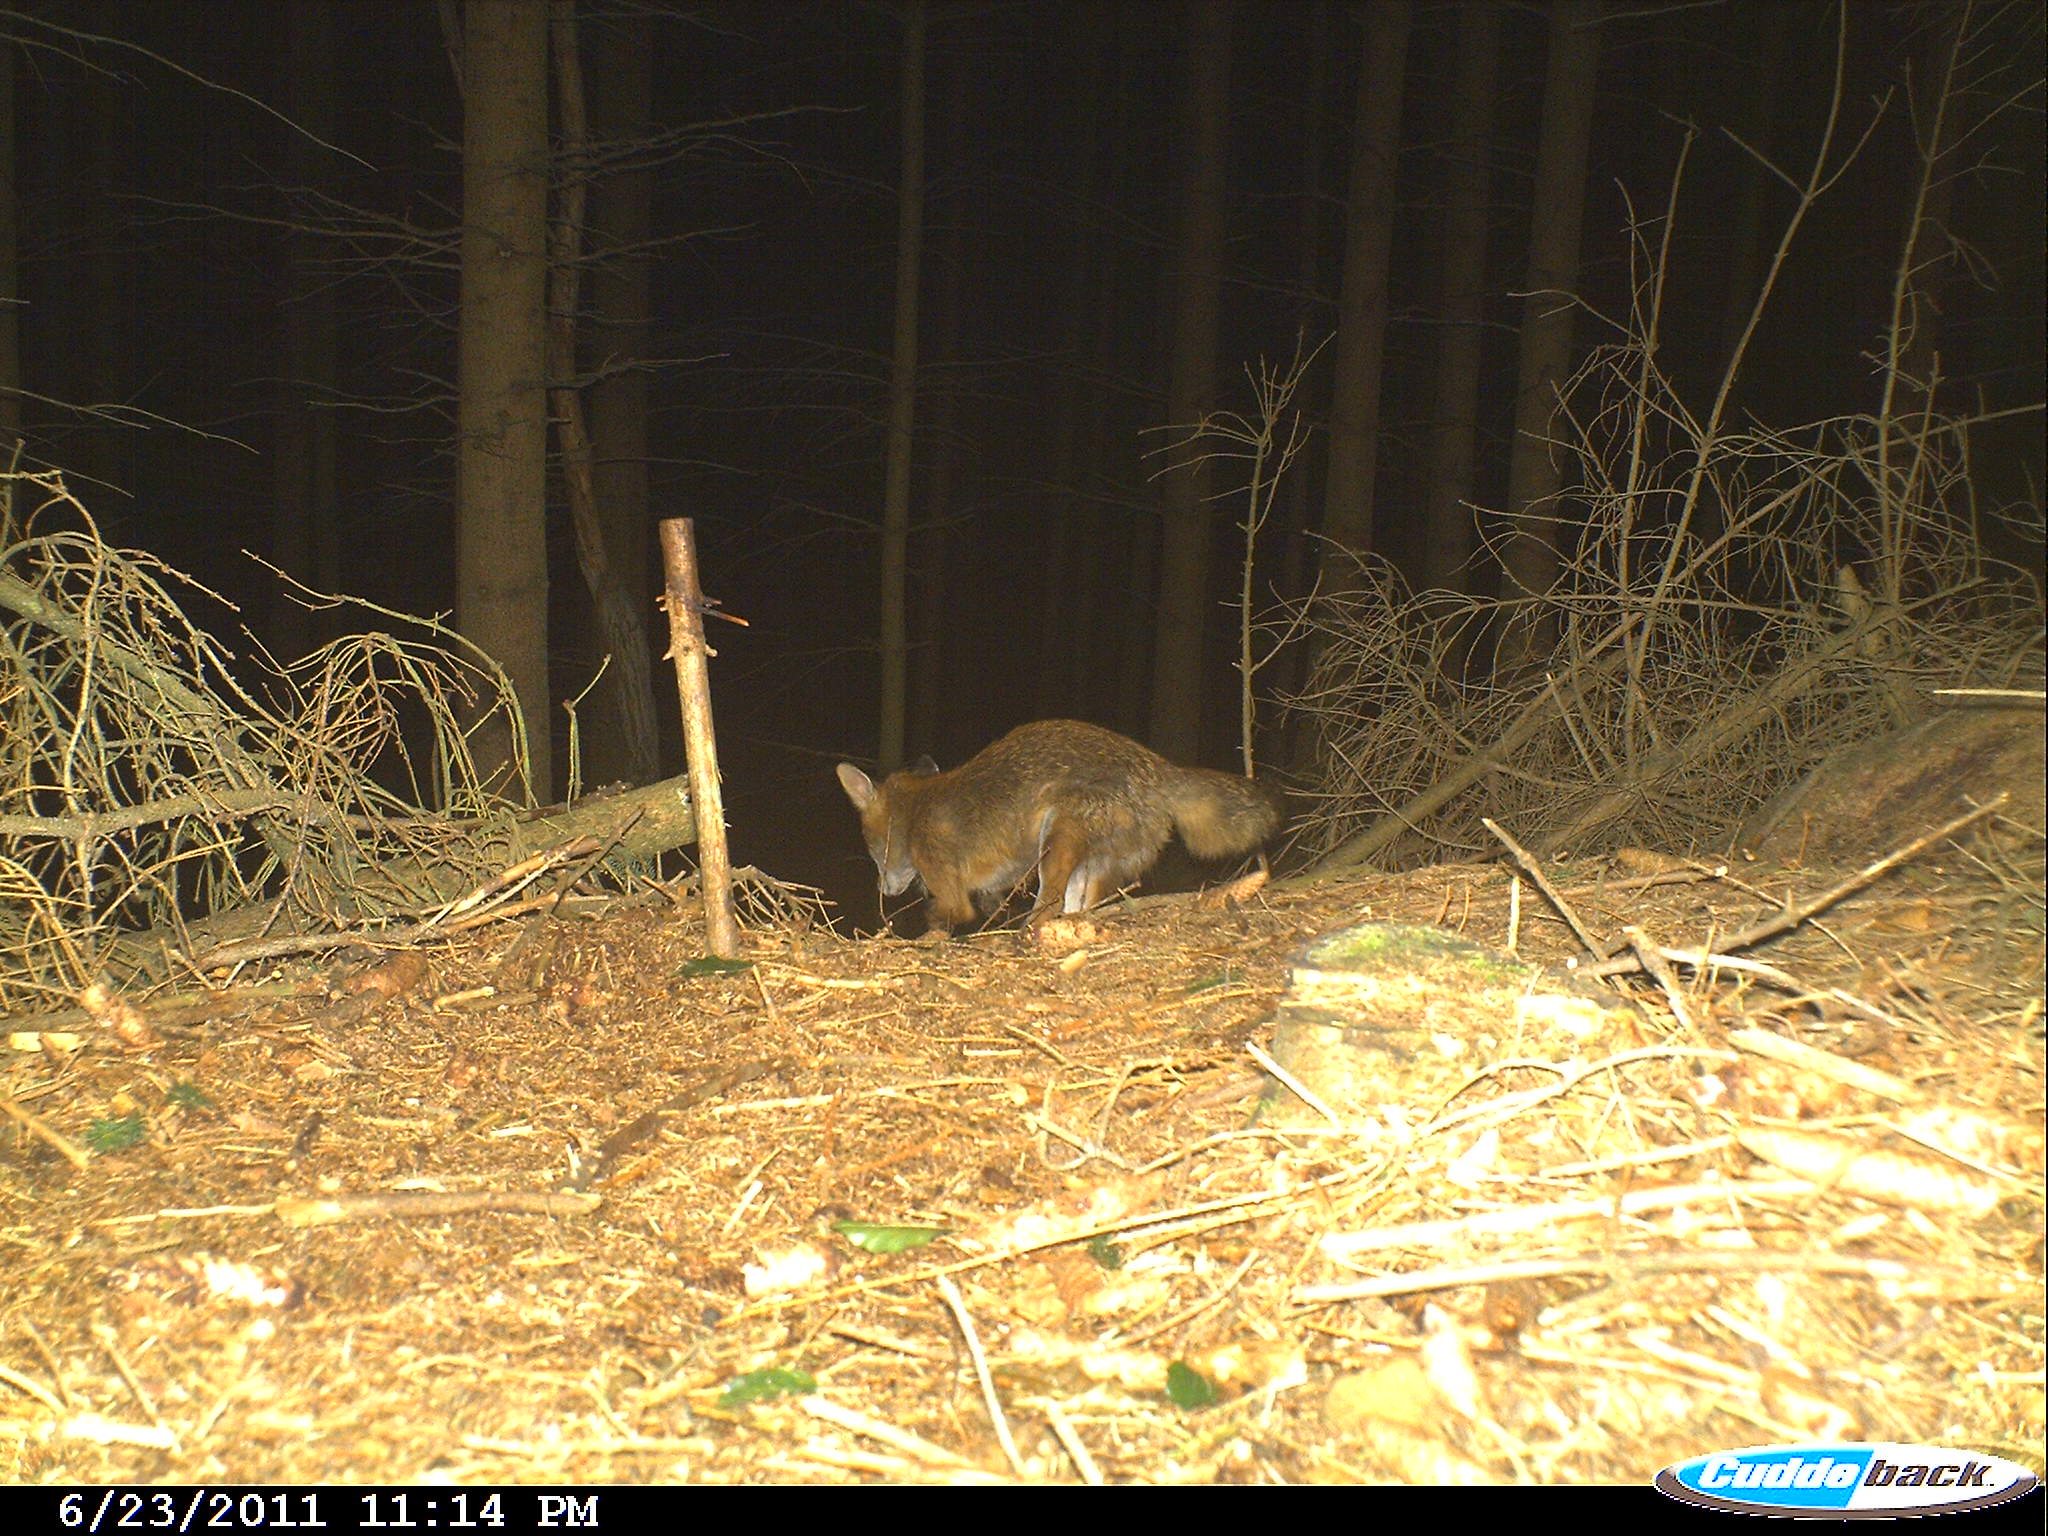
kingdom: Animalia
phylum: Chordata
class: Mammalia
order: Carnivora
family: Canidae
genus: Vulpes
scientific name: Vulpes vulpes
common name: Red fox
